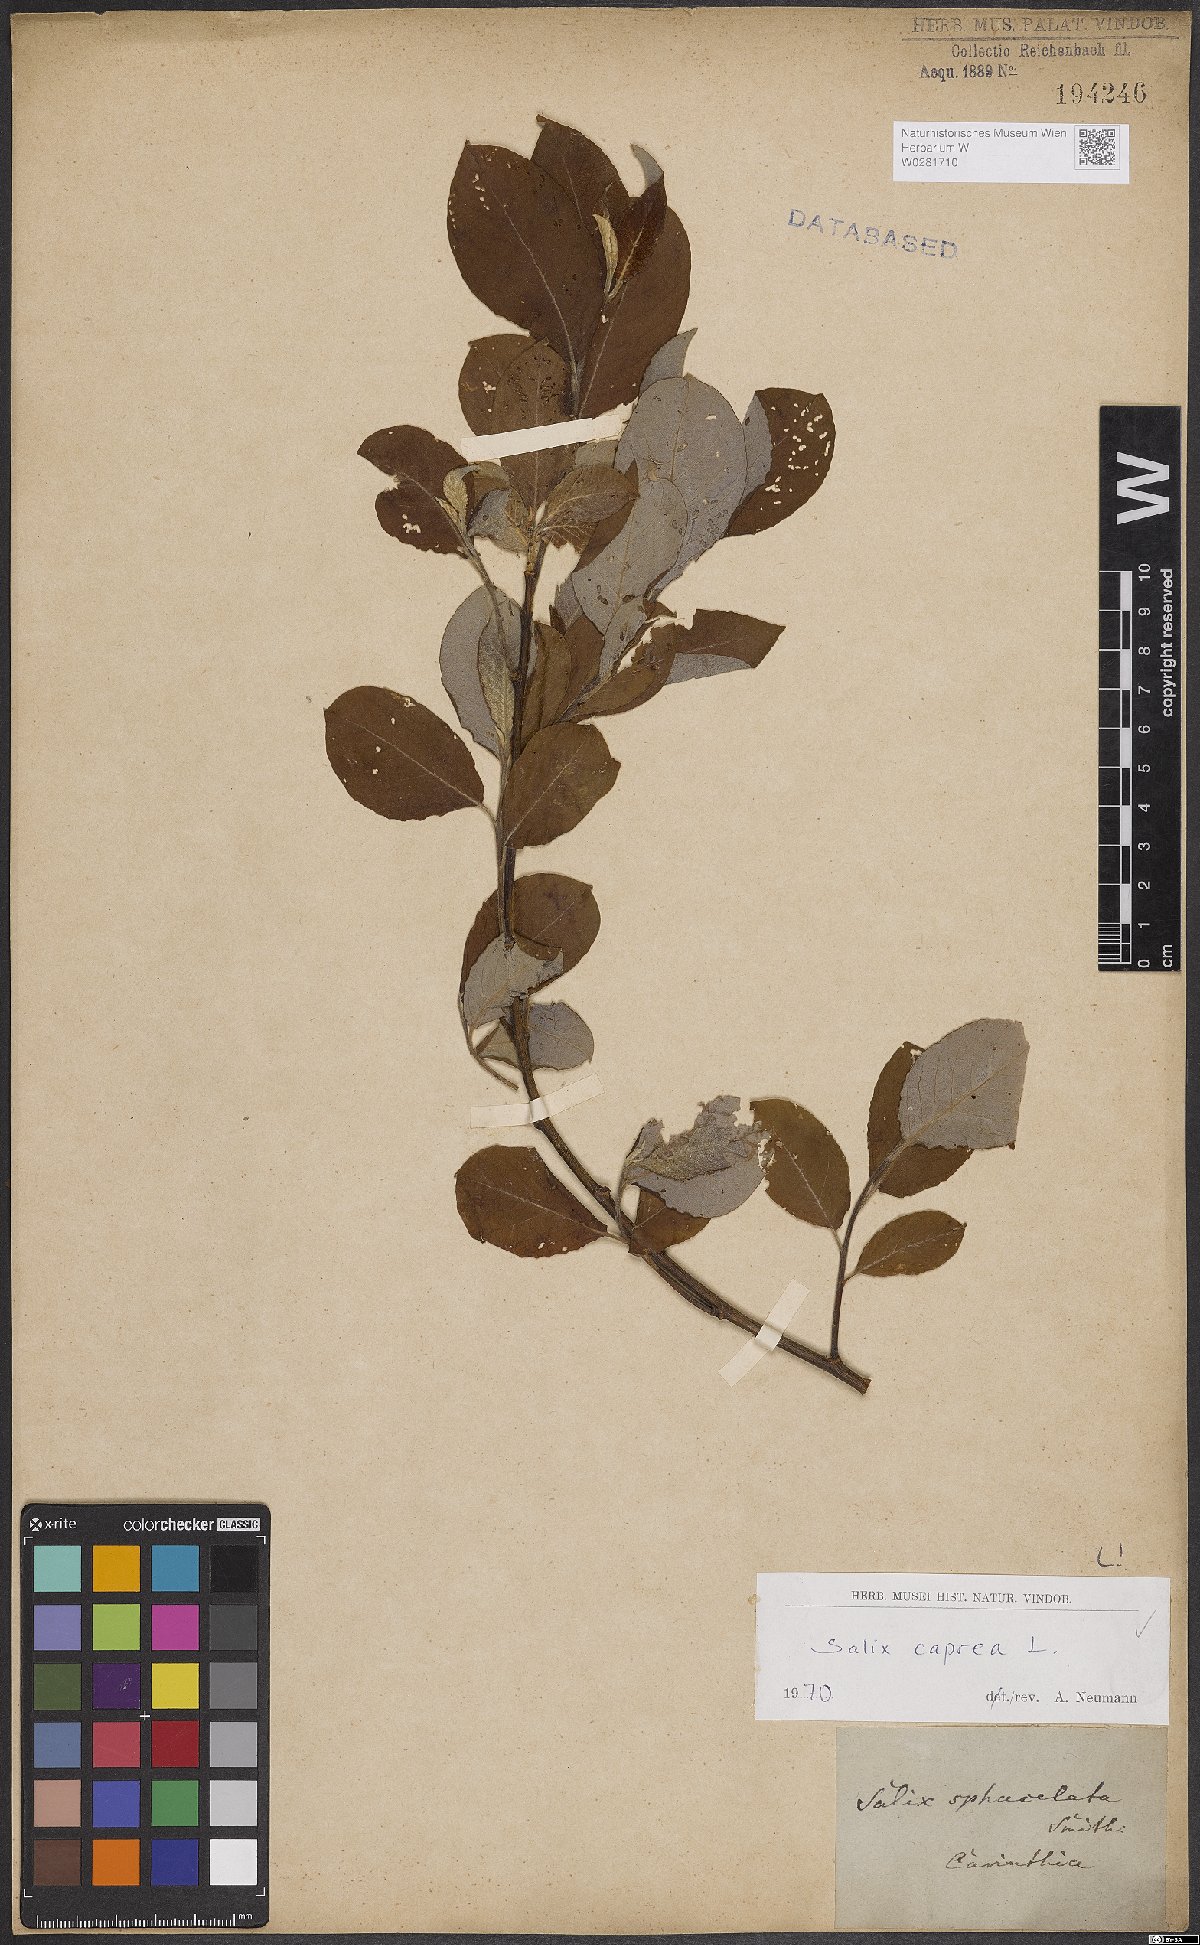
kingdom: Plantae
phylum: Tracheophyta
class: Magnoliopsida
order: Malpighiales
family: Salicaceae
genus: Salix
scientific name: Salix caprea
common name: Goat willow
